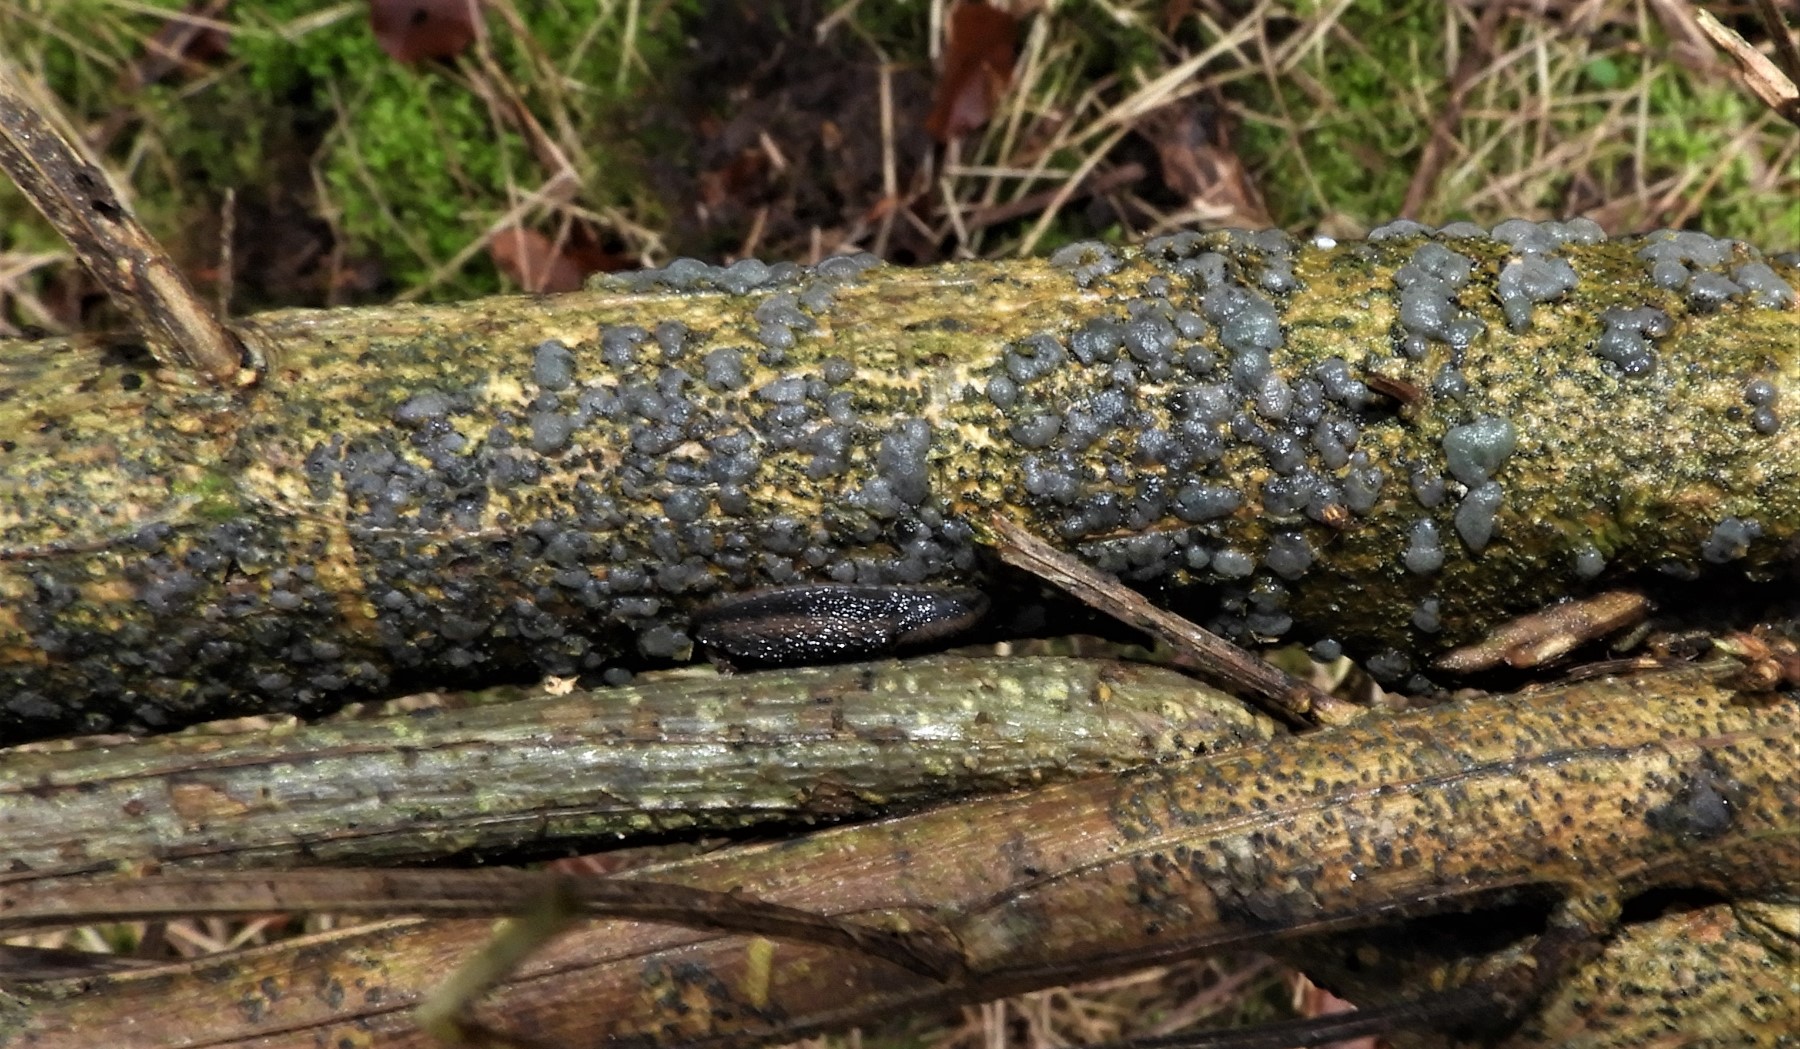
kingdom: Fungi
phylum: Basidiomycota
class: Tremellomycetes
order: Tremellales
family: Tremellaceae
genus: Tremella
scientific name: Tremella
